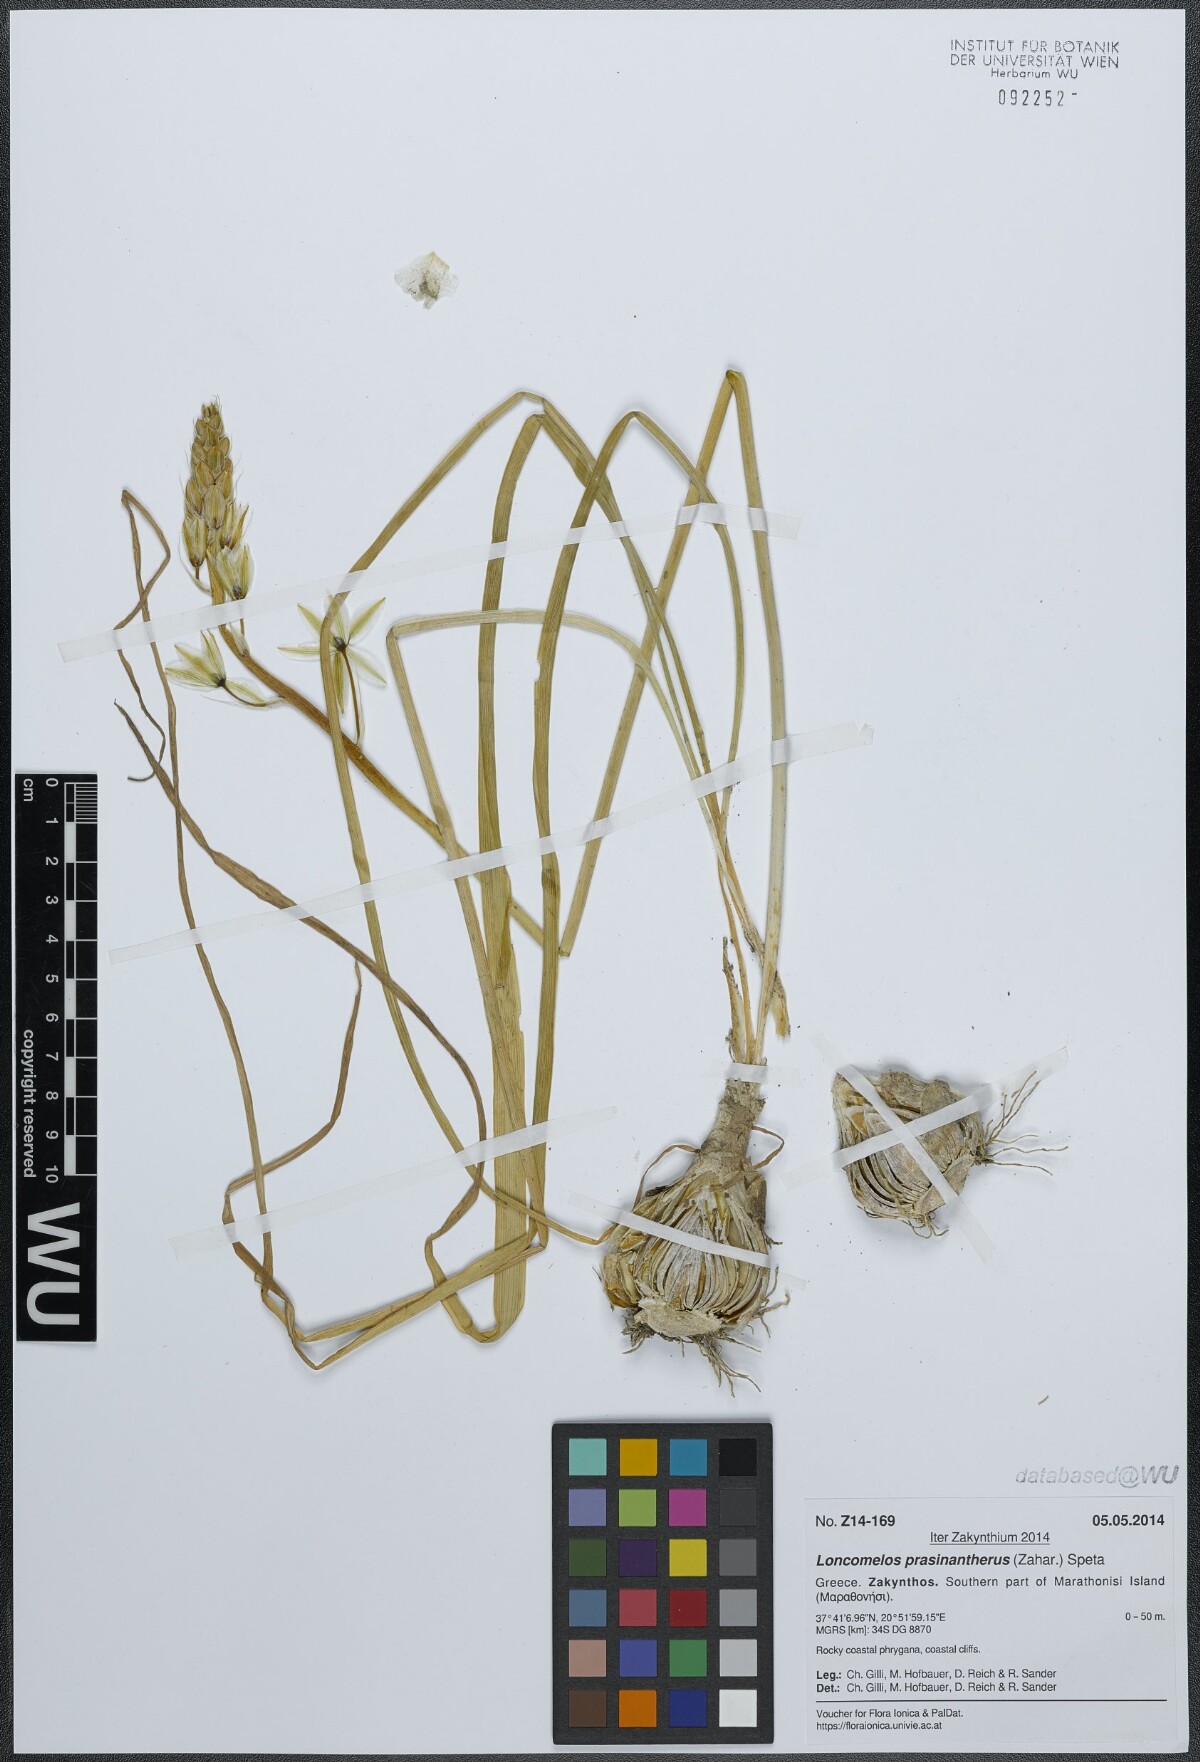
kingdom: Plantae
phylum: Tracheophyta
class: Liliopsida
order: Asparagales
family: Asparagaceae
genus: Ornithogalum
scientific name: Ornithogalum prasinantherum
